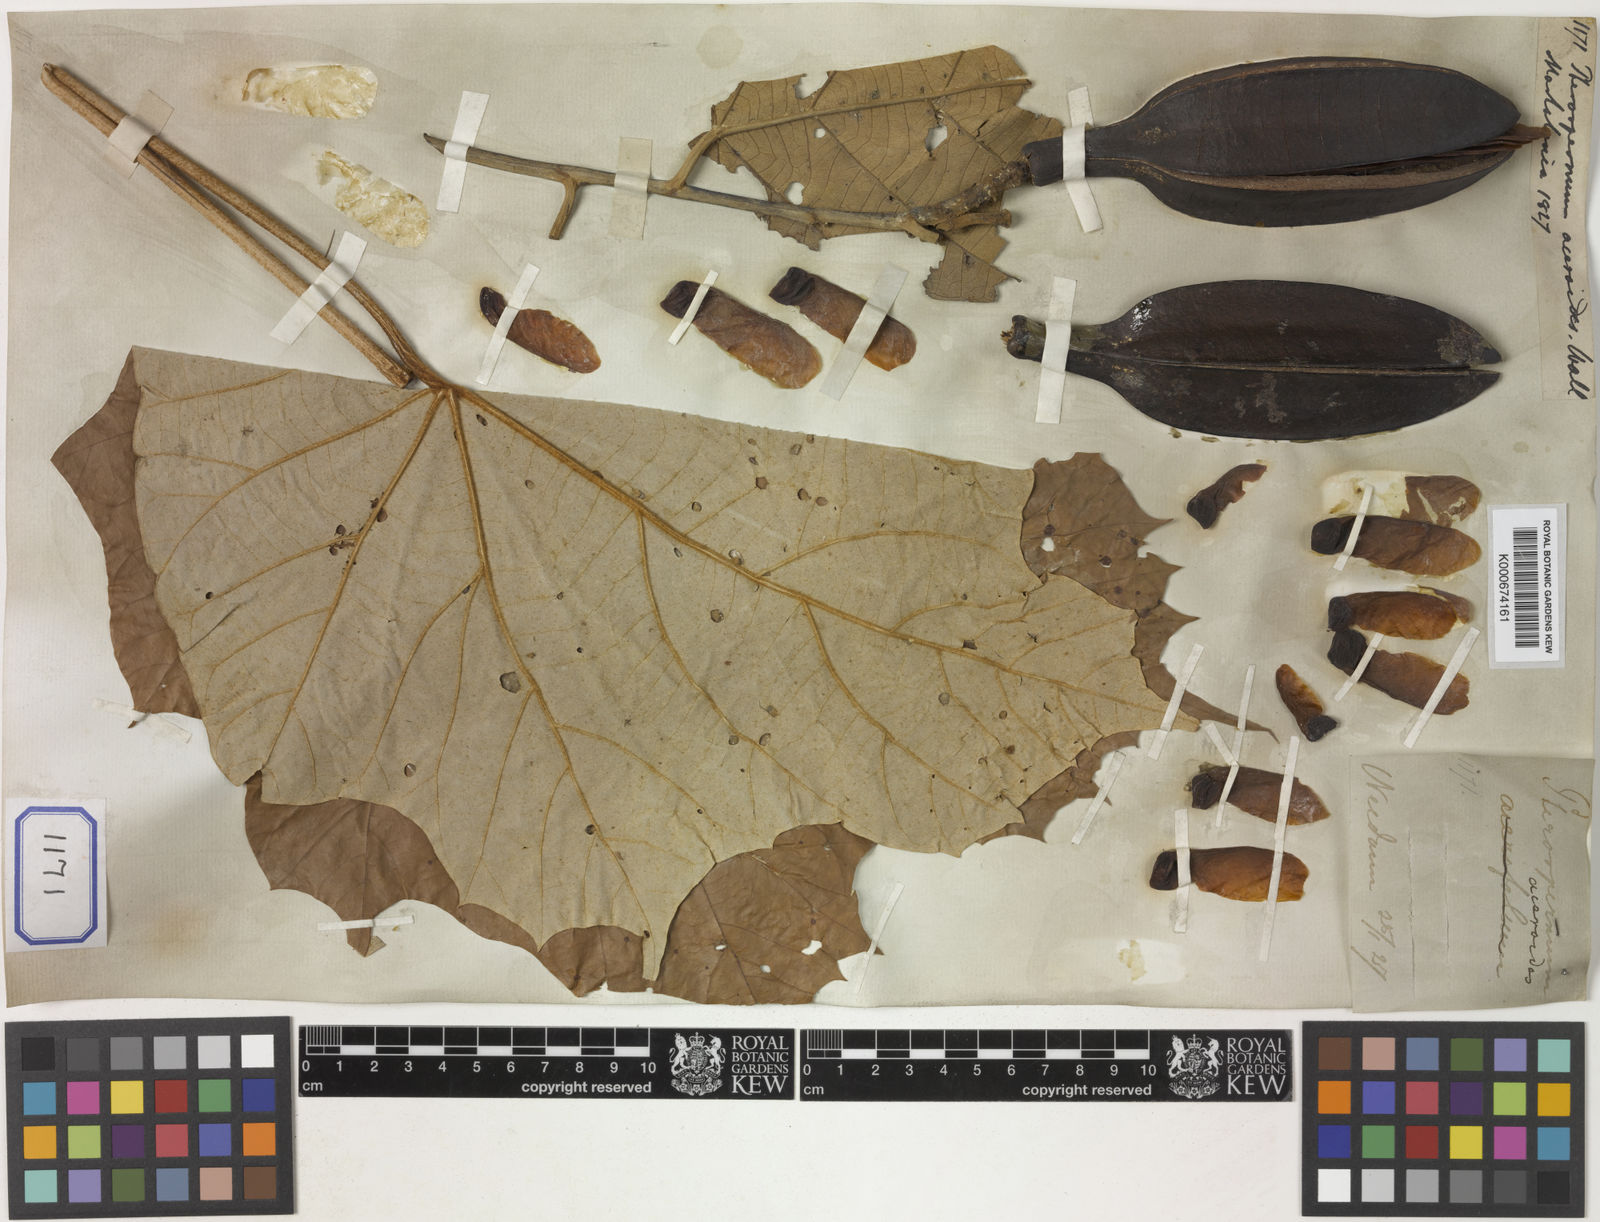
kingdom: Plantae
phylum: Tracheophyta
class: Magnoliopsida
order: Malvales
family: Malvaceae
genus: Pterospermum
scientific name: Pterospermum
